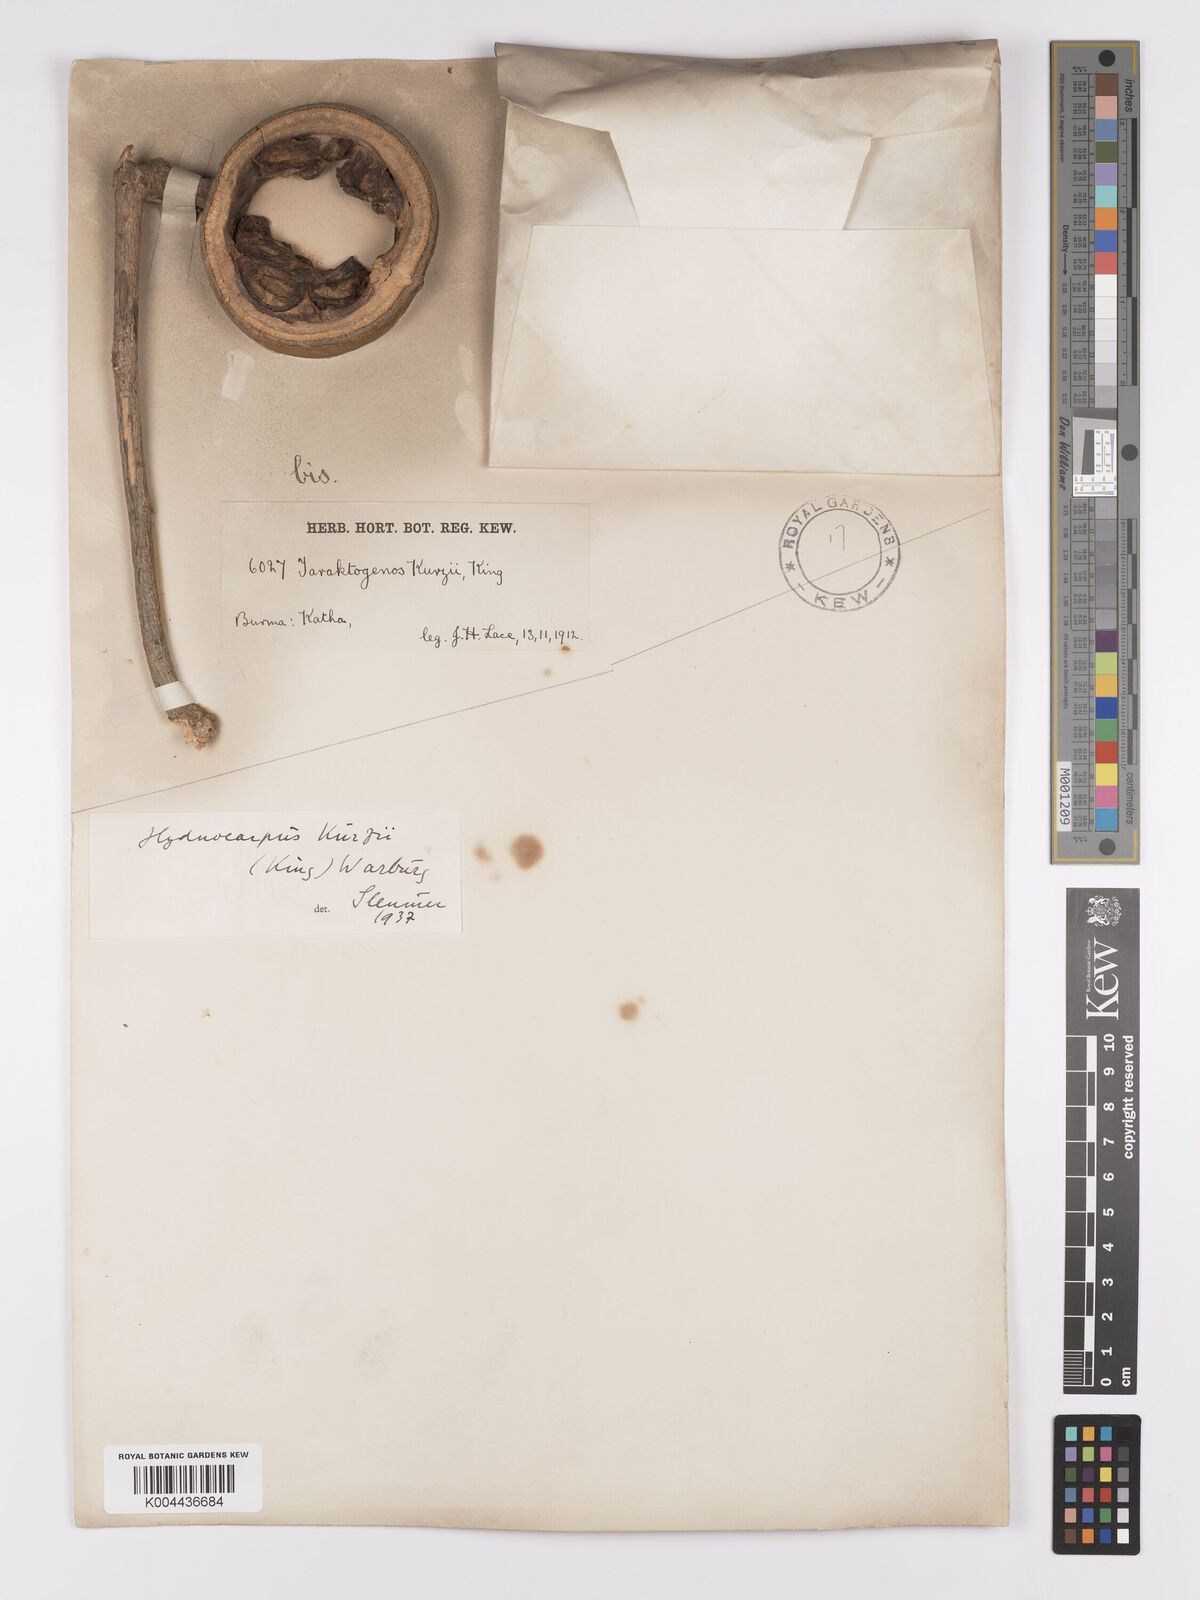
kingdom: Plantae
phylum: Tracheophyta
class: Magnoliopsida
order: Malpighiales
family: Achariaceae
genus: Hydnocarpus
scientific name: Hydnocarpus kurzii
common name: Chaulmoogra
